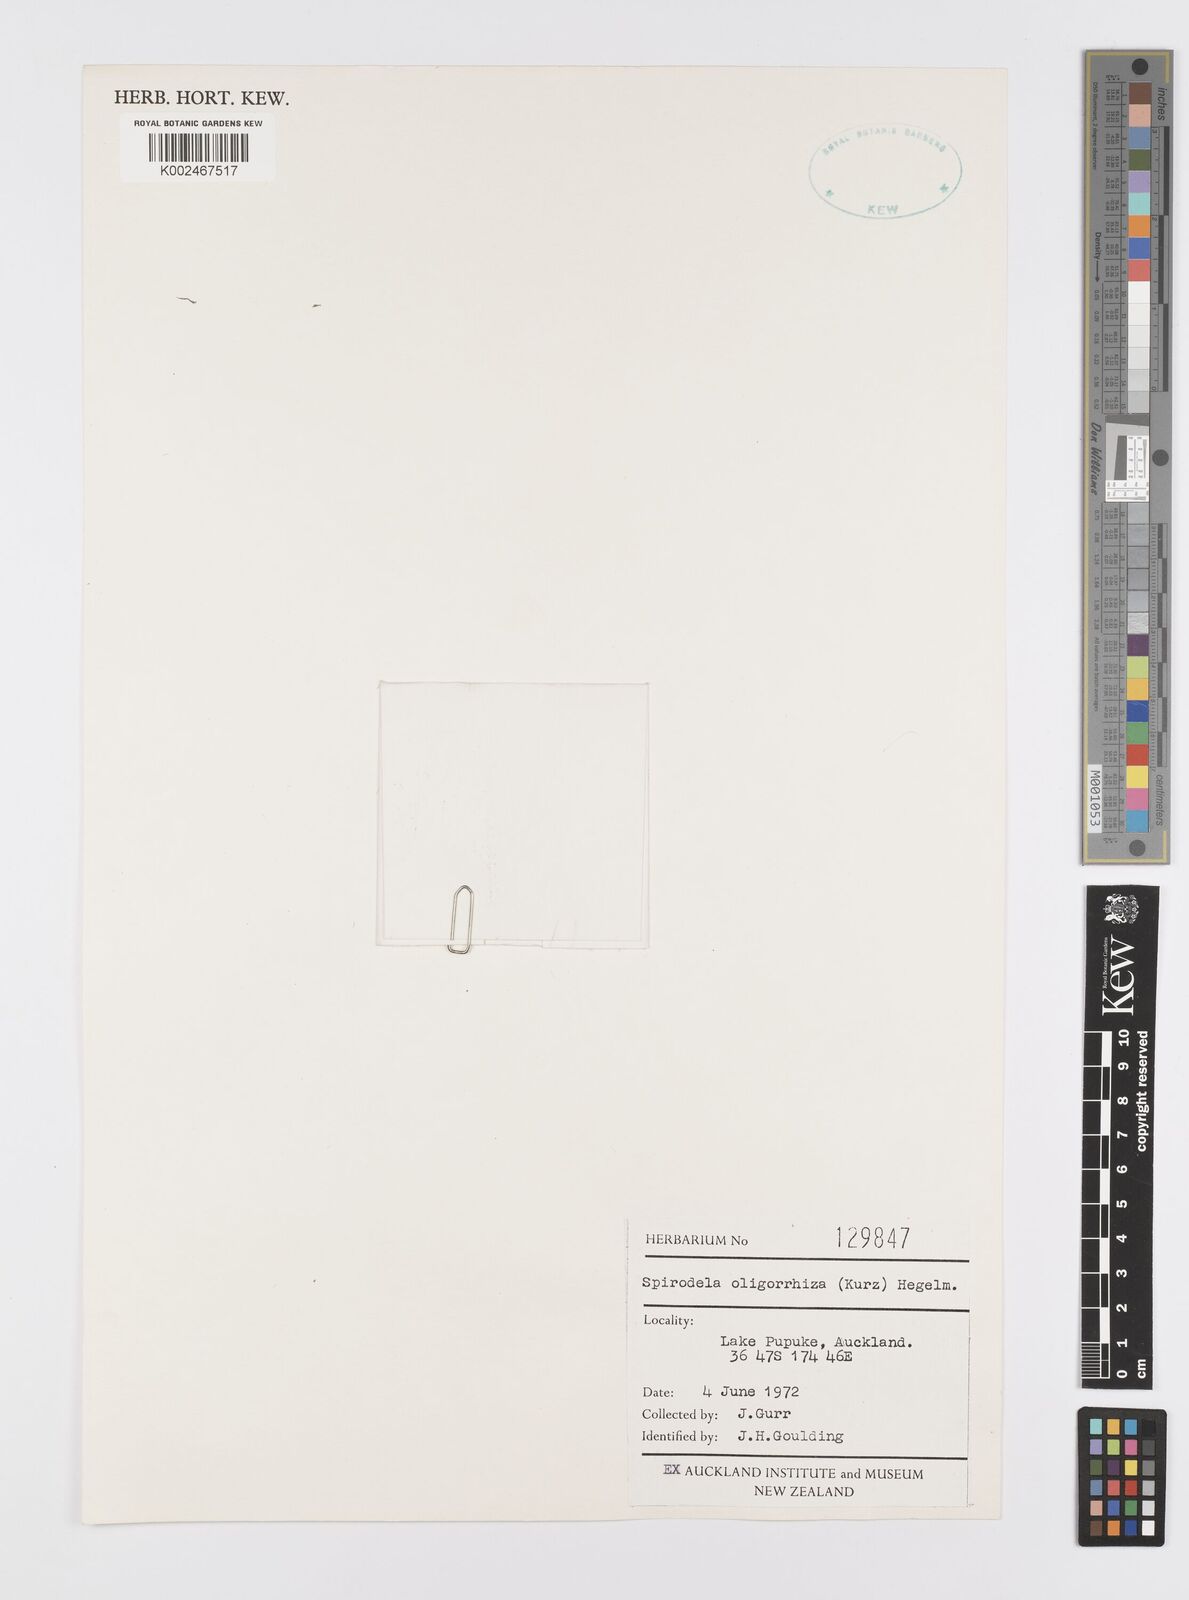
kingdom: Plantae
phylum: Tracheophyta
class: Liliopsida
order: Alismatales
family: Araceae
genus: Spirodela
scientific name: Spirodela punctata
